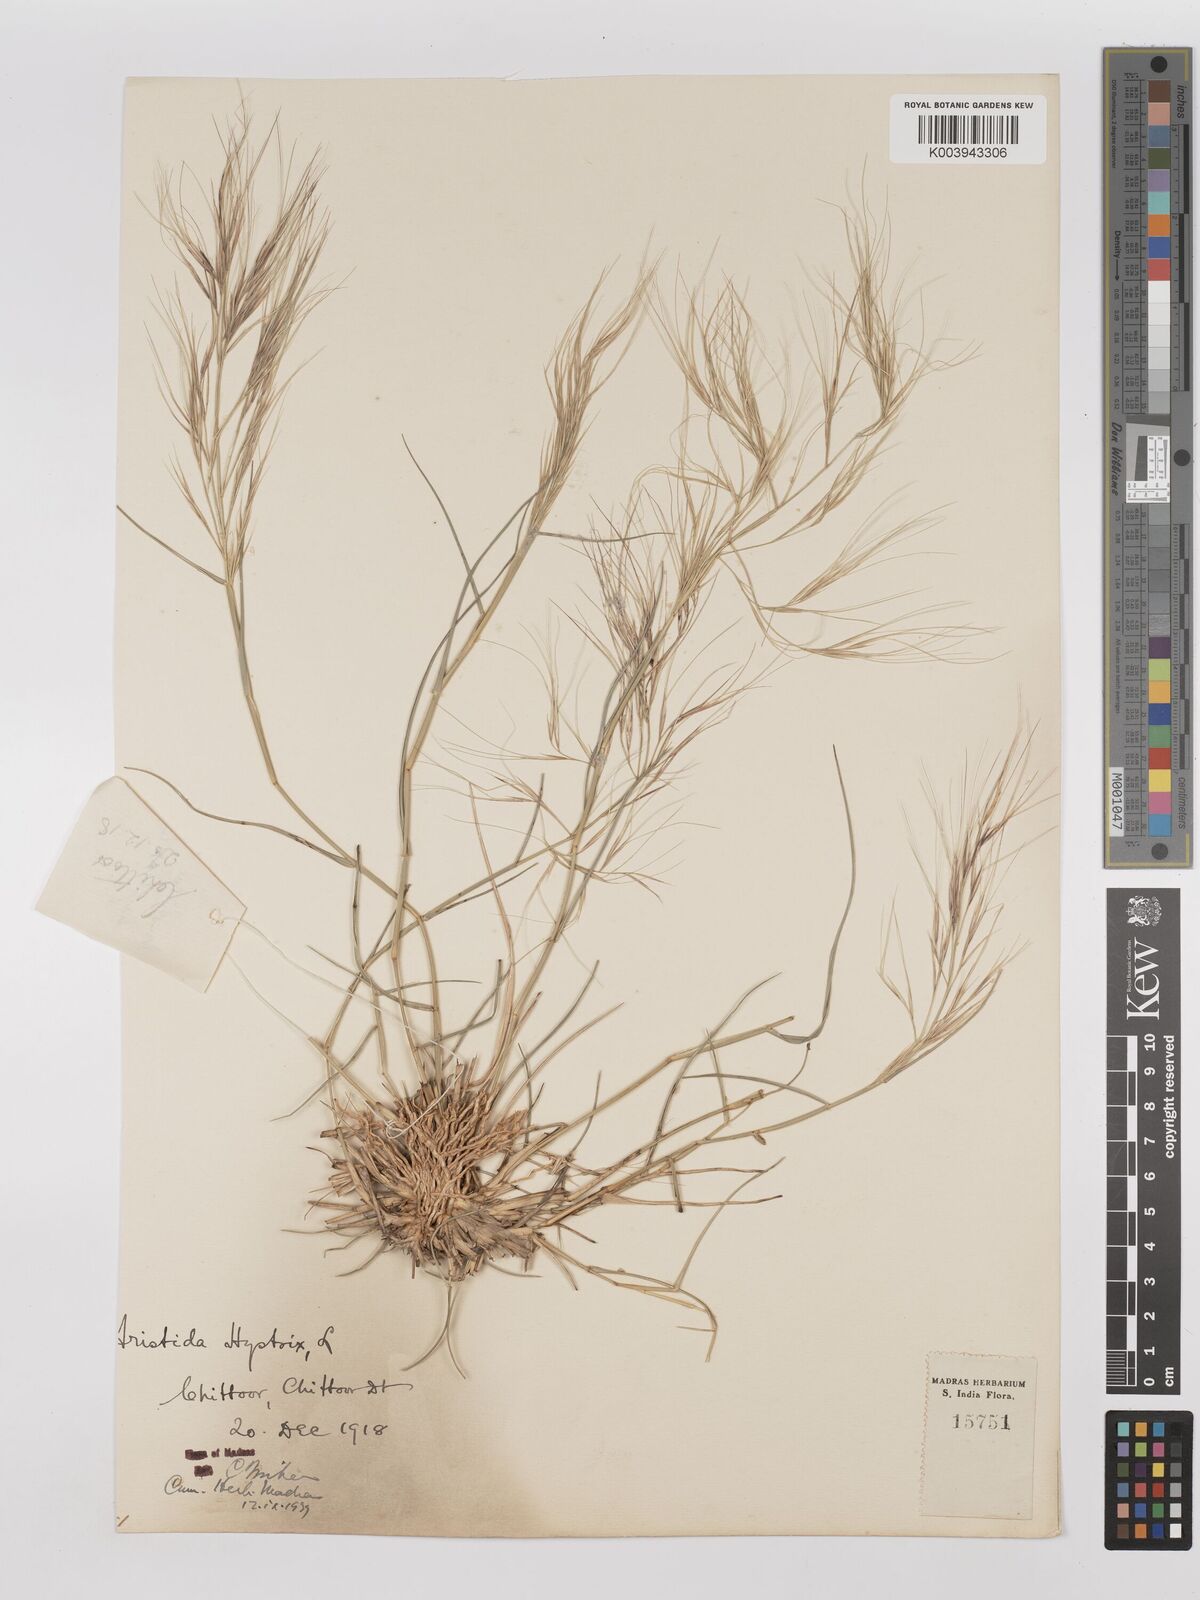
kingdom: Plantae
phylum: Tracheophyta
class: Liliopsida
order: Poales
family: Poaceae
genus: Aristida
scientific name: Aristida hystrix
